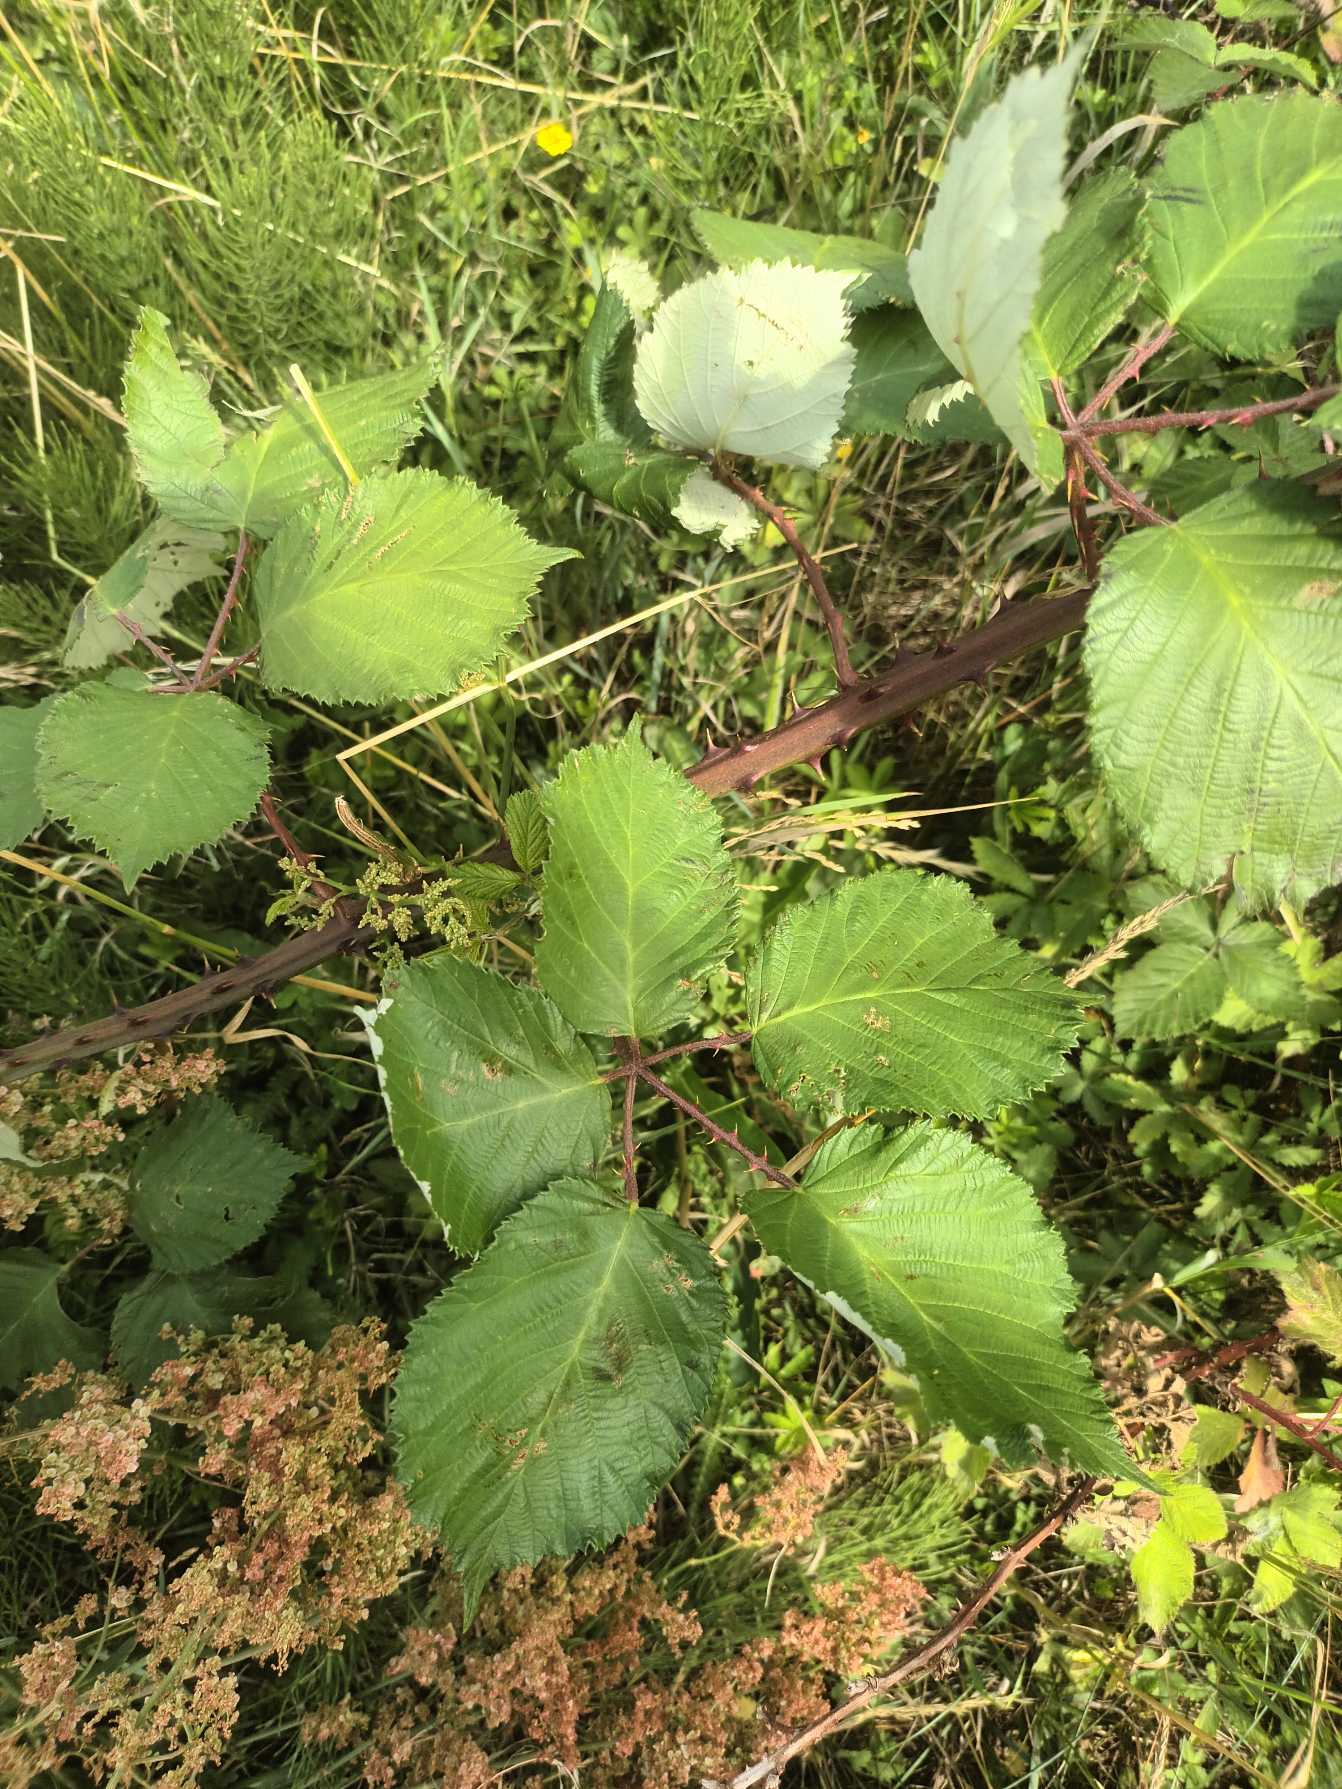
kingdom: Plantae
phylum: Tracheophyta
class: Magnoliopsida
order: Rosales
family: Rosaceae
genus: Rubus
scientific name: Rubus armeniacus
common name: Armensk brombær
